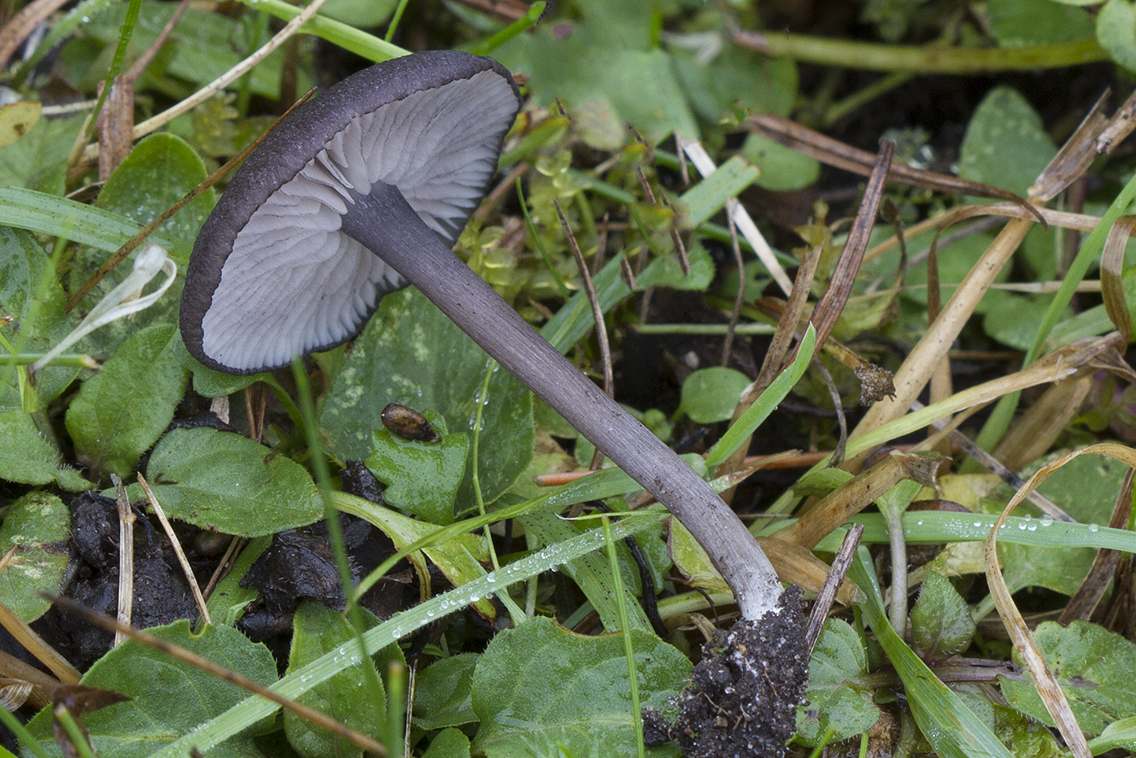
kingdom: Fungi
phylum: Basidiomycota
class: Agaricomycetes
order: Agaricales
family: Entolomataceae
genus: Entoloma
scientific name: Entoloma porphyrogriseum
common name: porfyrgrå rødblad
